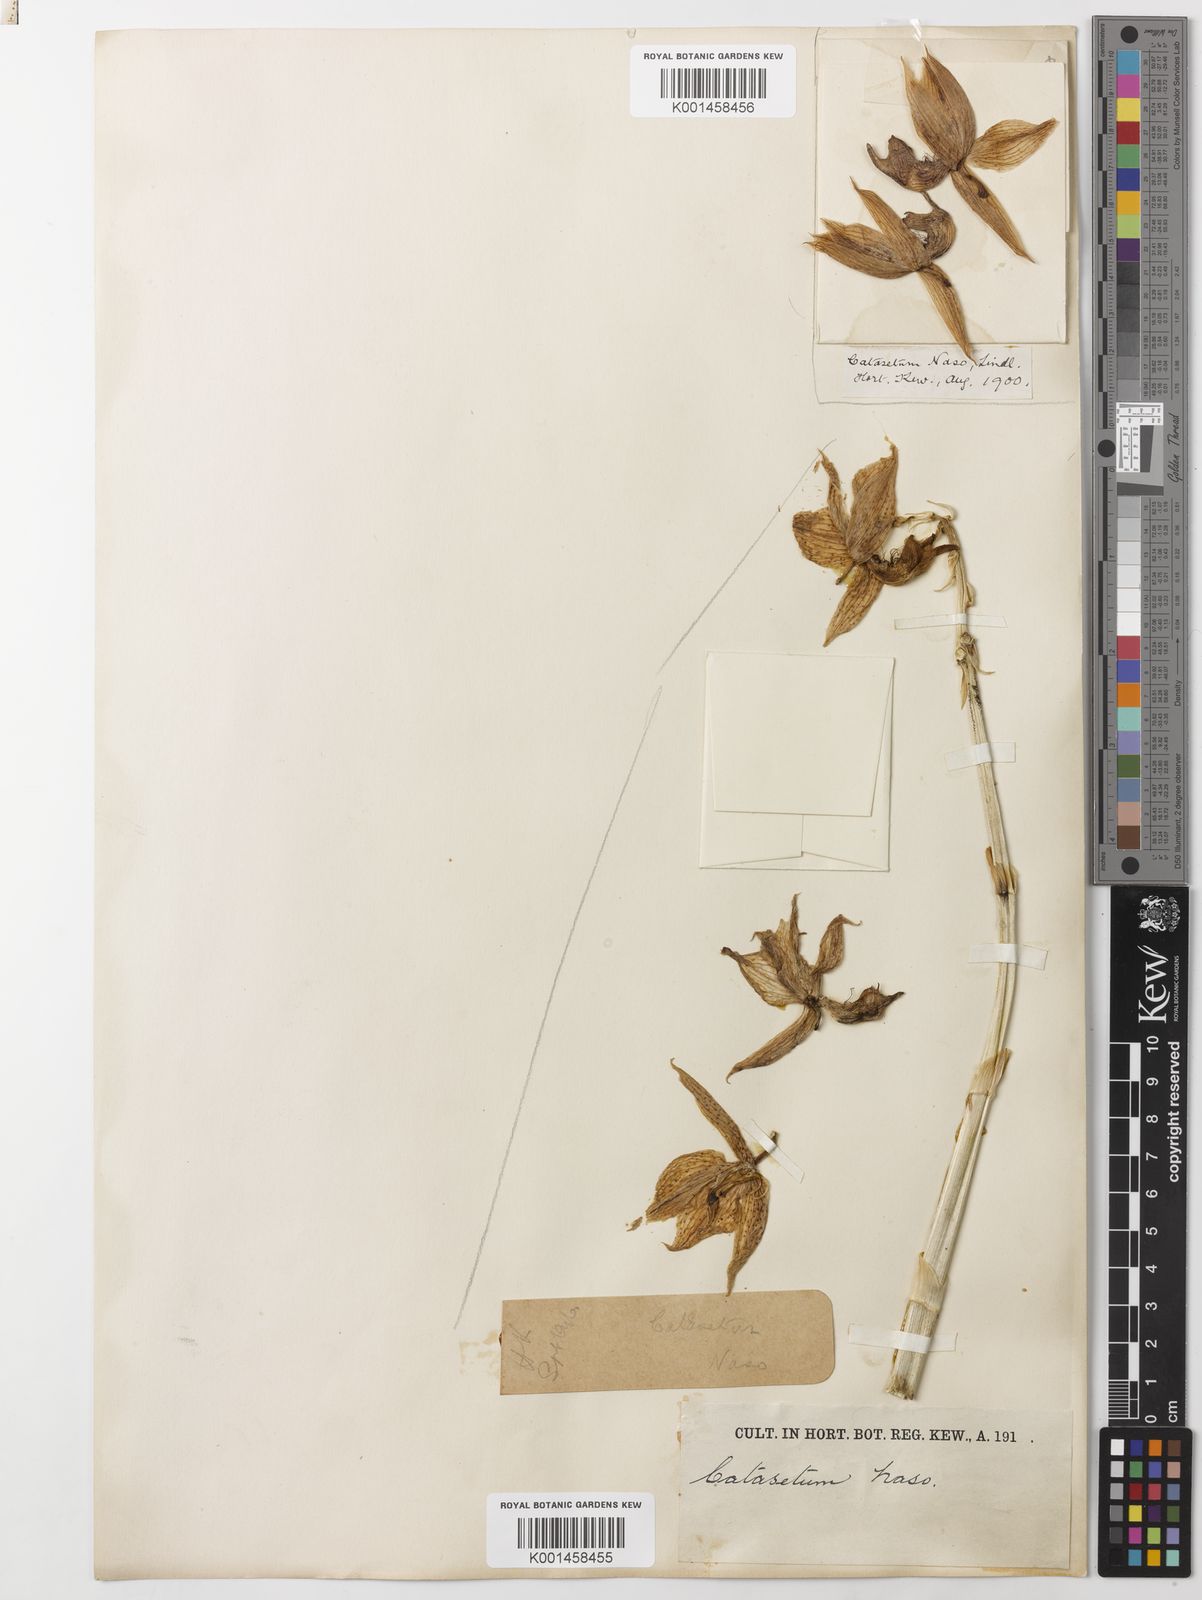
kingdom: Plantae
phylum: Tracheophyta
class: Liliopsida
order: Asparagales
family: Orchidaceae
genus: Catasetum
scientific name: Catasetum naso
